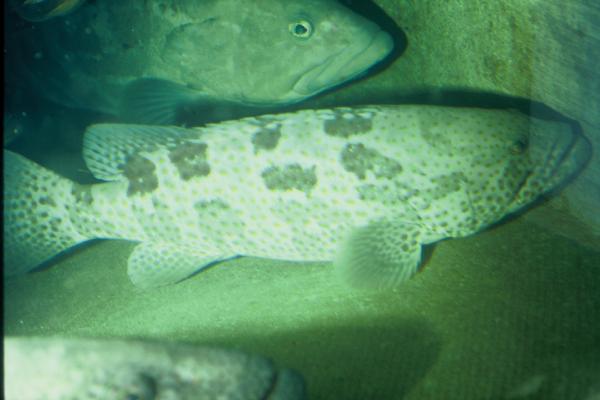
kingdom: Animalia
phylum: Chordata
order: Perciformes
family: Serranidae
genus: Epinephelus
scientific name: Epinephelus coioides
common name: Orange-spotted grouper
